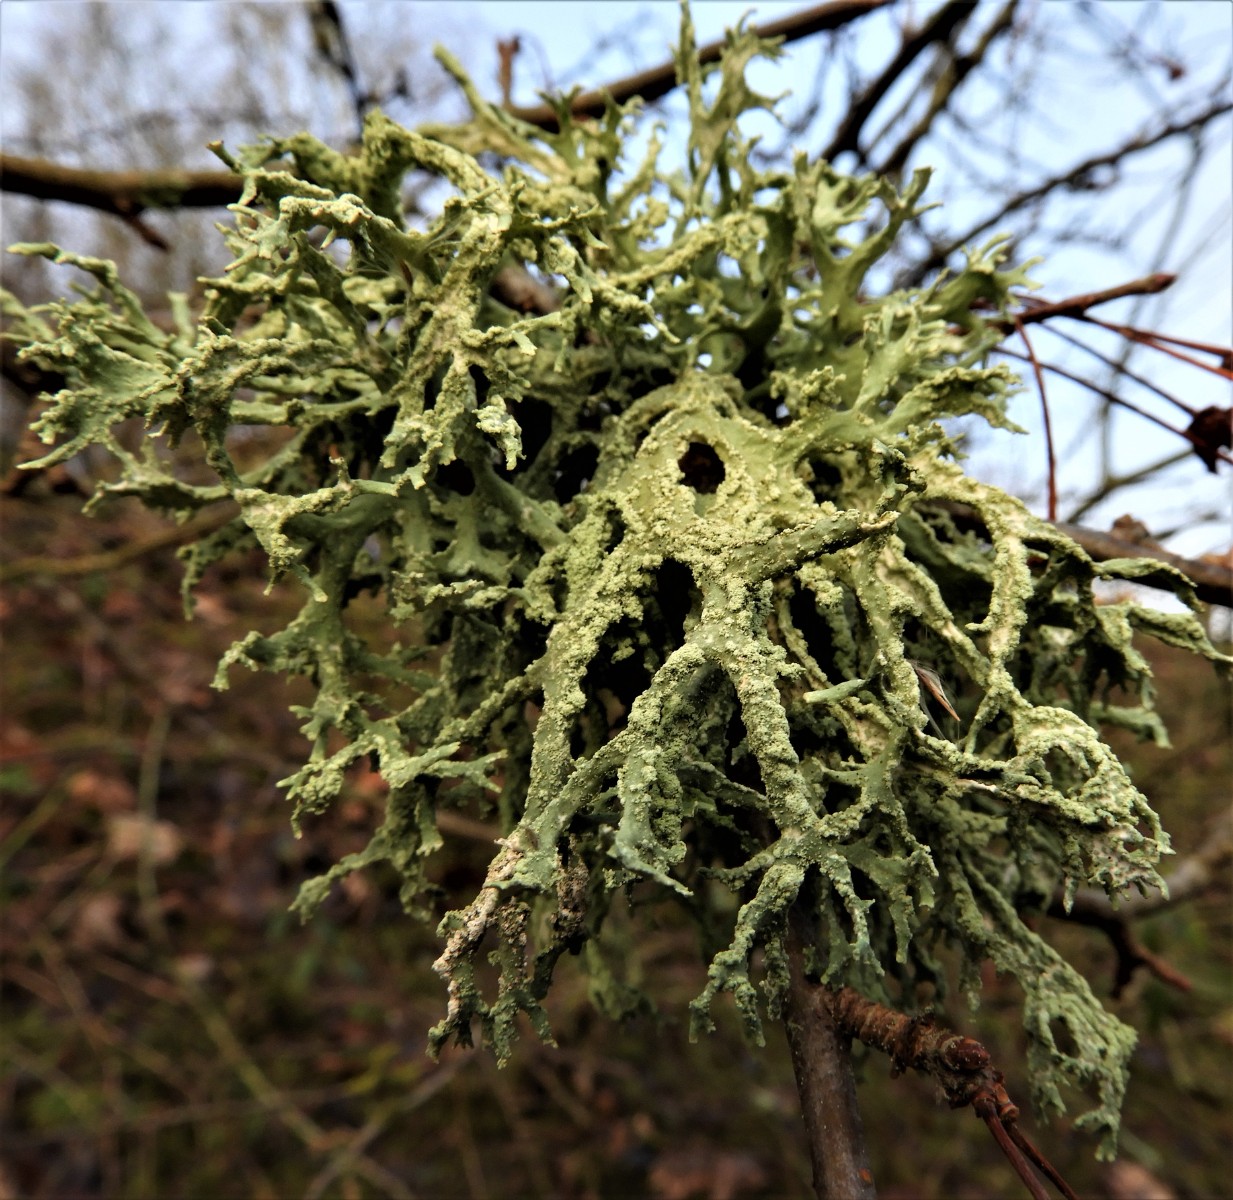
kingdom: Fungi
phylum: Ascomycota
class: Lecanoromycetes
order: Lecanorales
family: Parmeliaceae
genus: Evernia
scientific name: Evernia prunastri
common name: almindelig slåenlav
